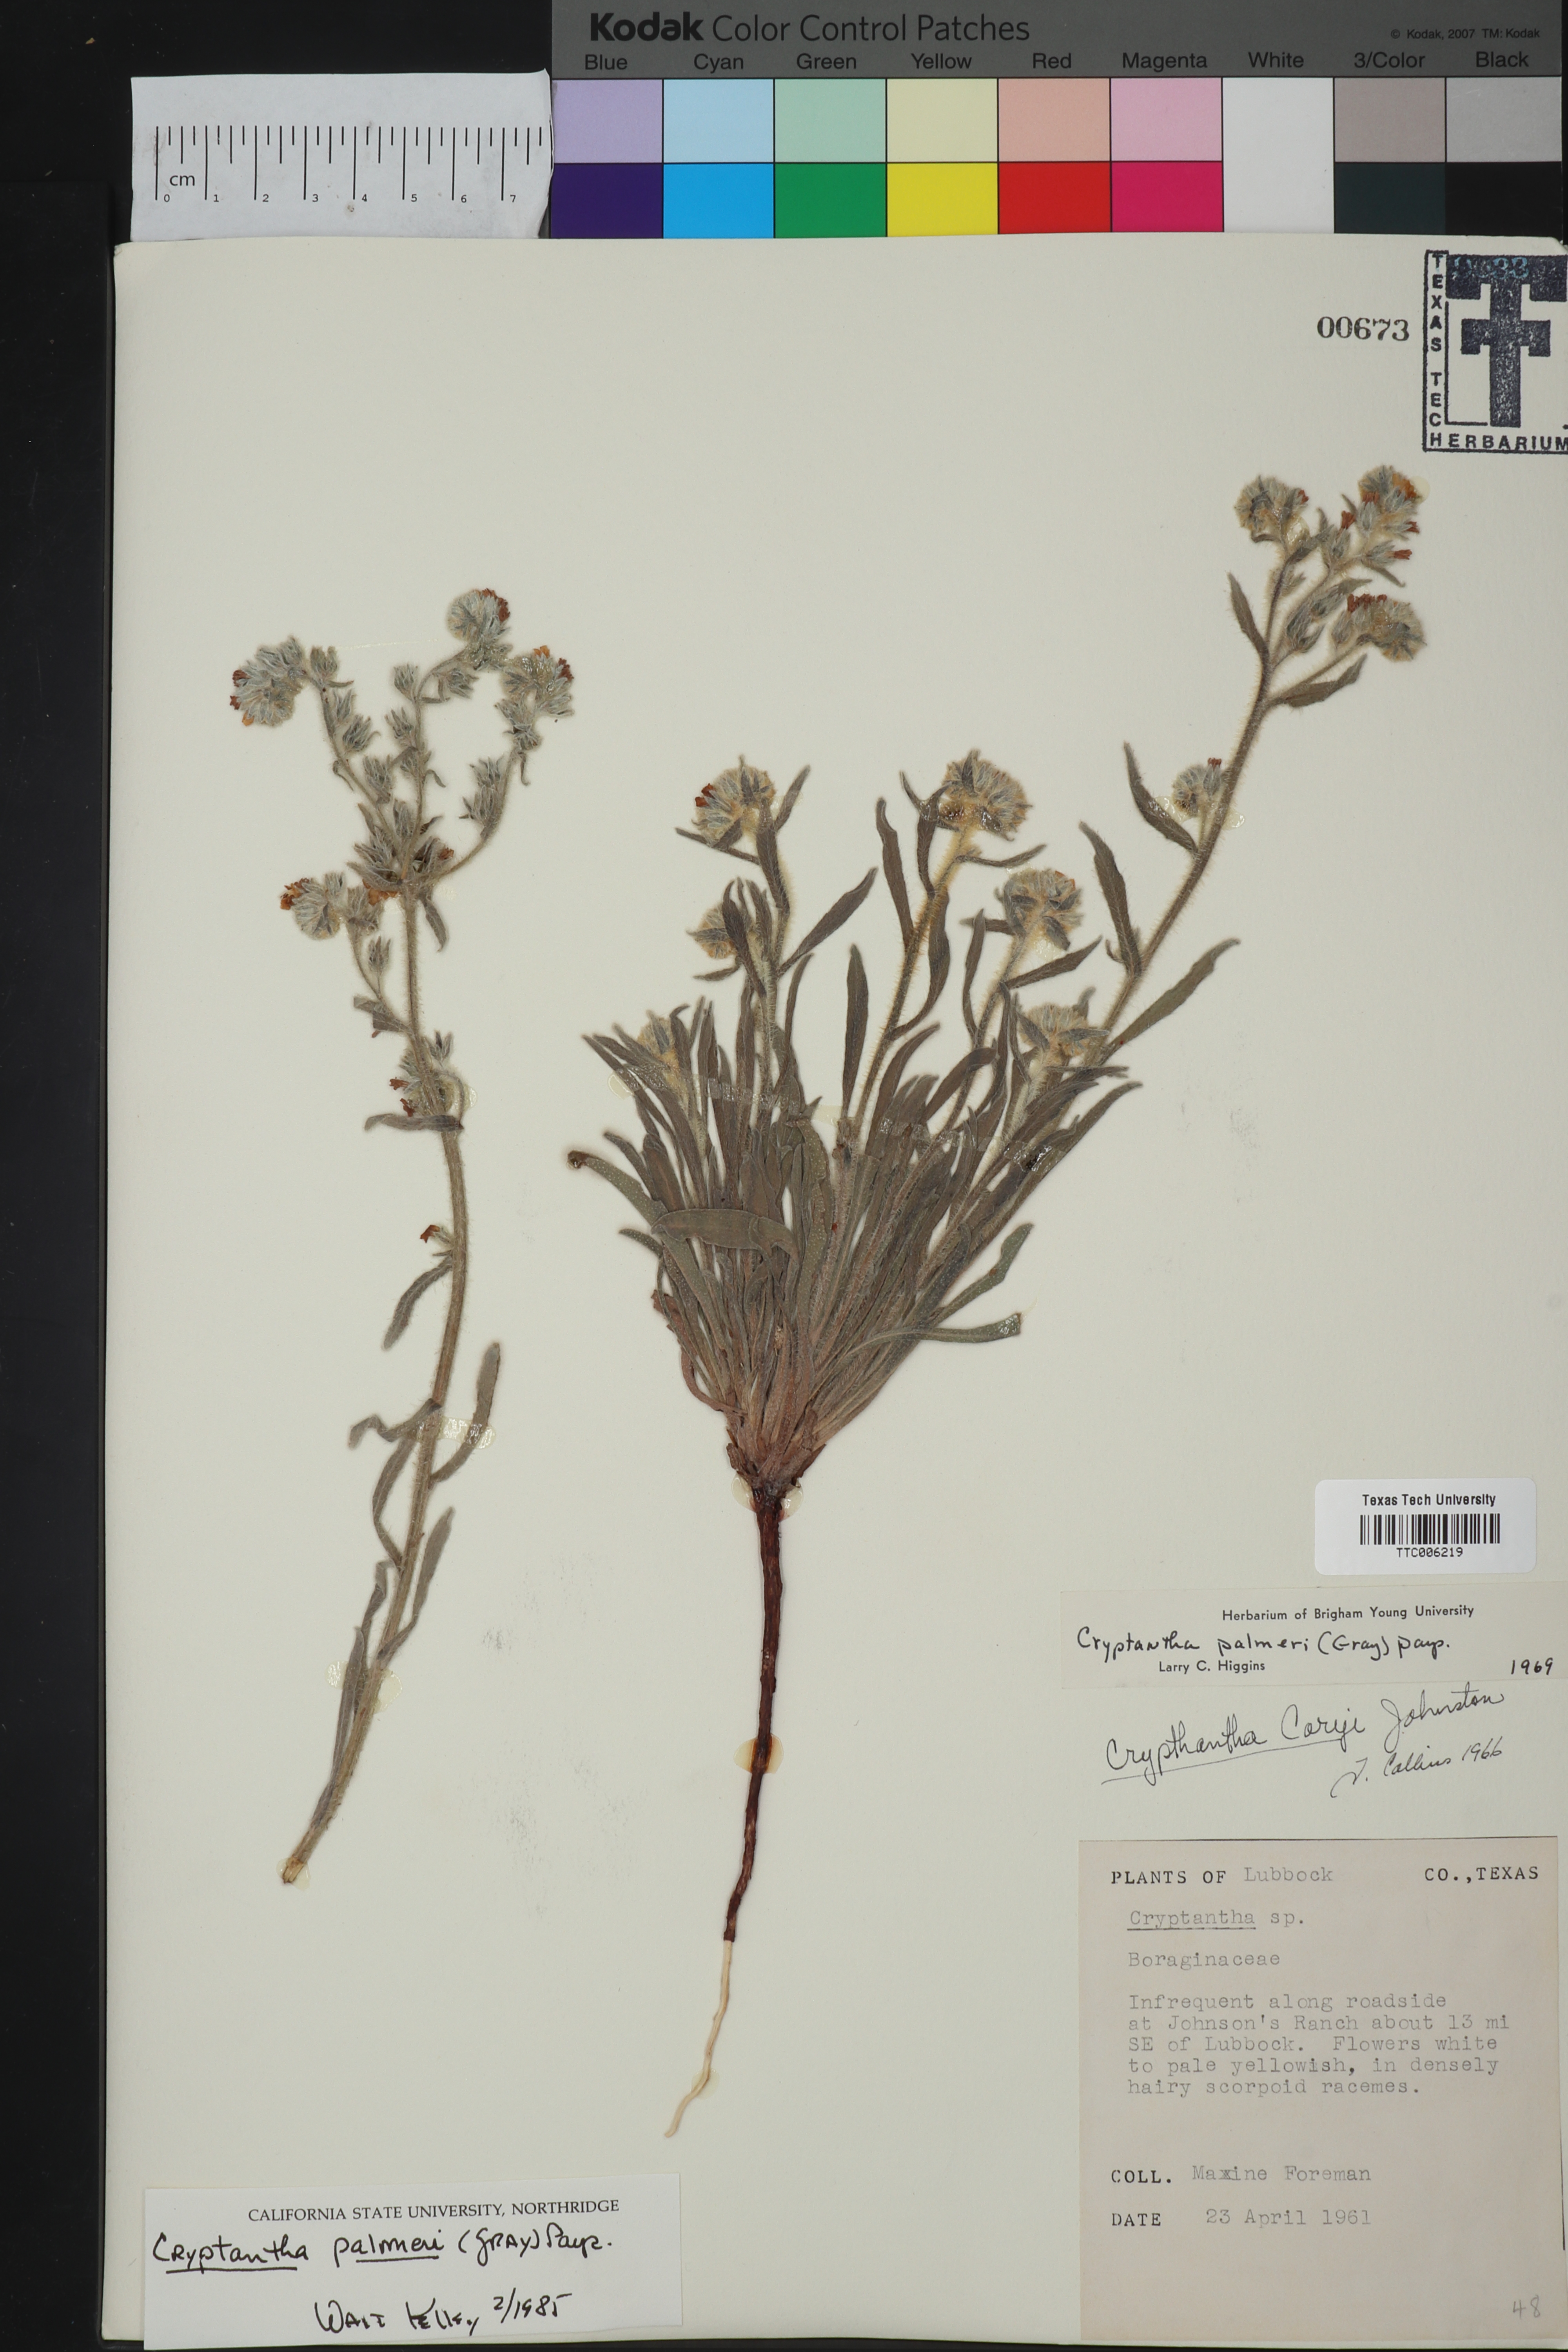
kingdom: Plantae
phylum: Tracheophyta
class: Magnoliopsida
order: Boraginales
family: Boraginaceae
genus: Oreocarya
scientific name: Oreocarya palmeri
